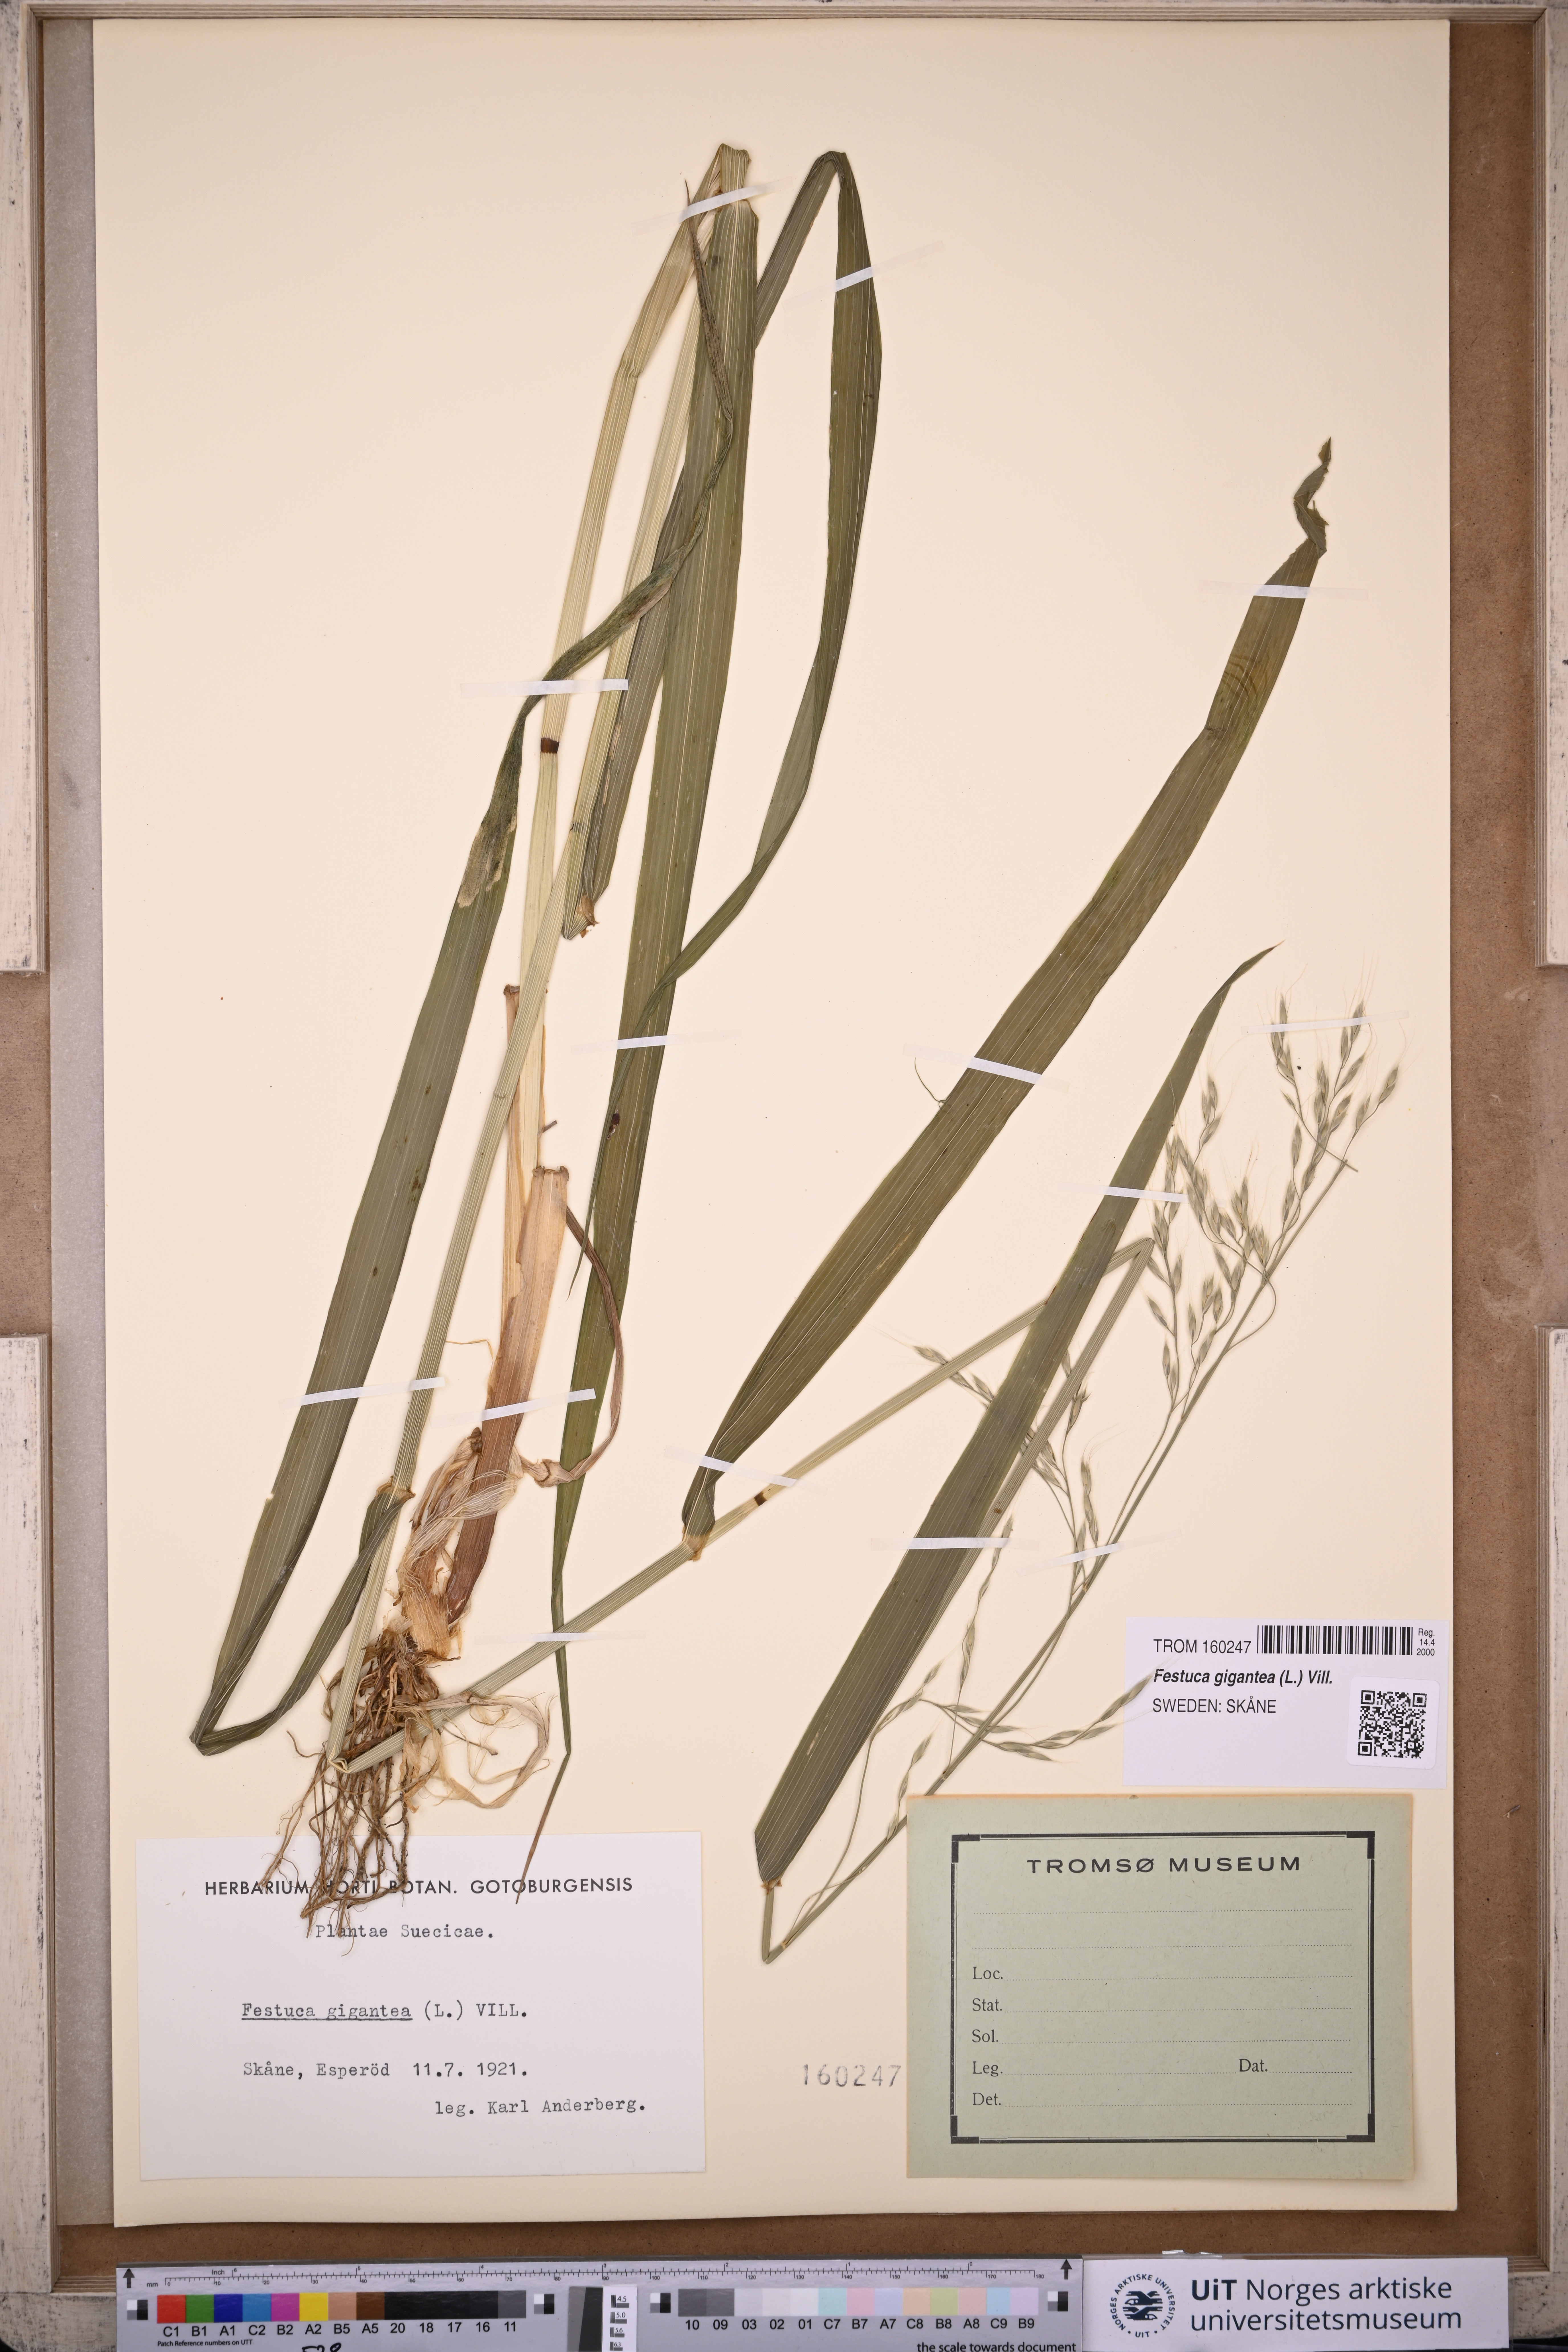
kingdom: Plantae
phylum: Tracheophyta
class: Liliopsida
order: Poales
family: Poaceae
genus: Lolium
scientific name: Lolium giganteum
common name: Giant fescue
